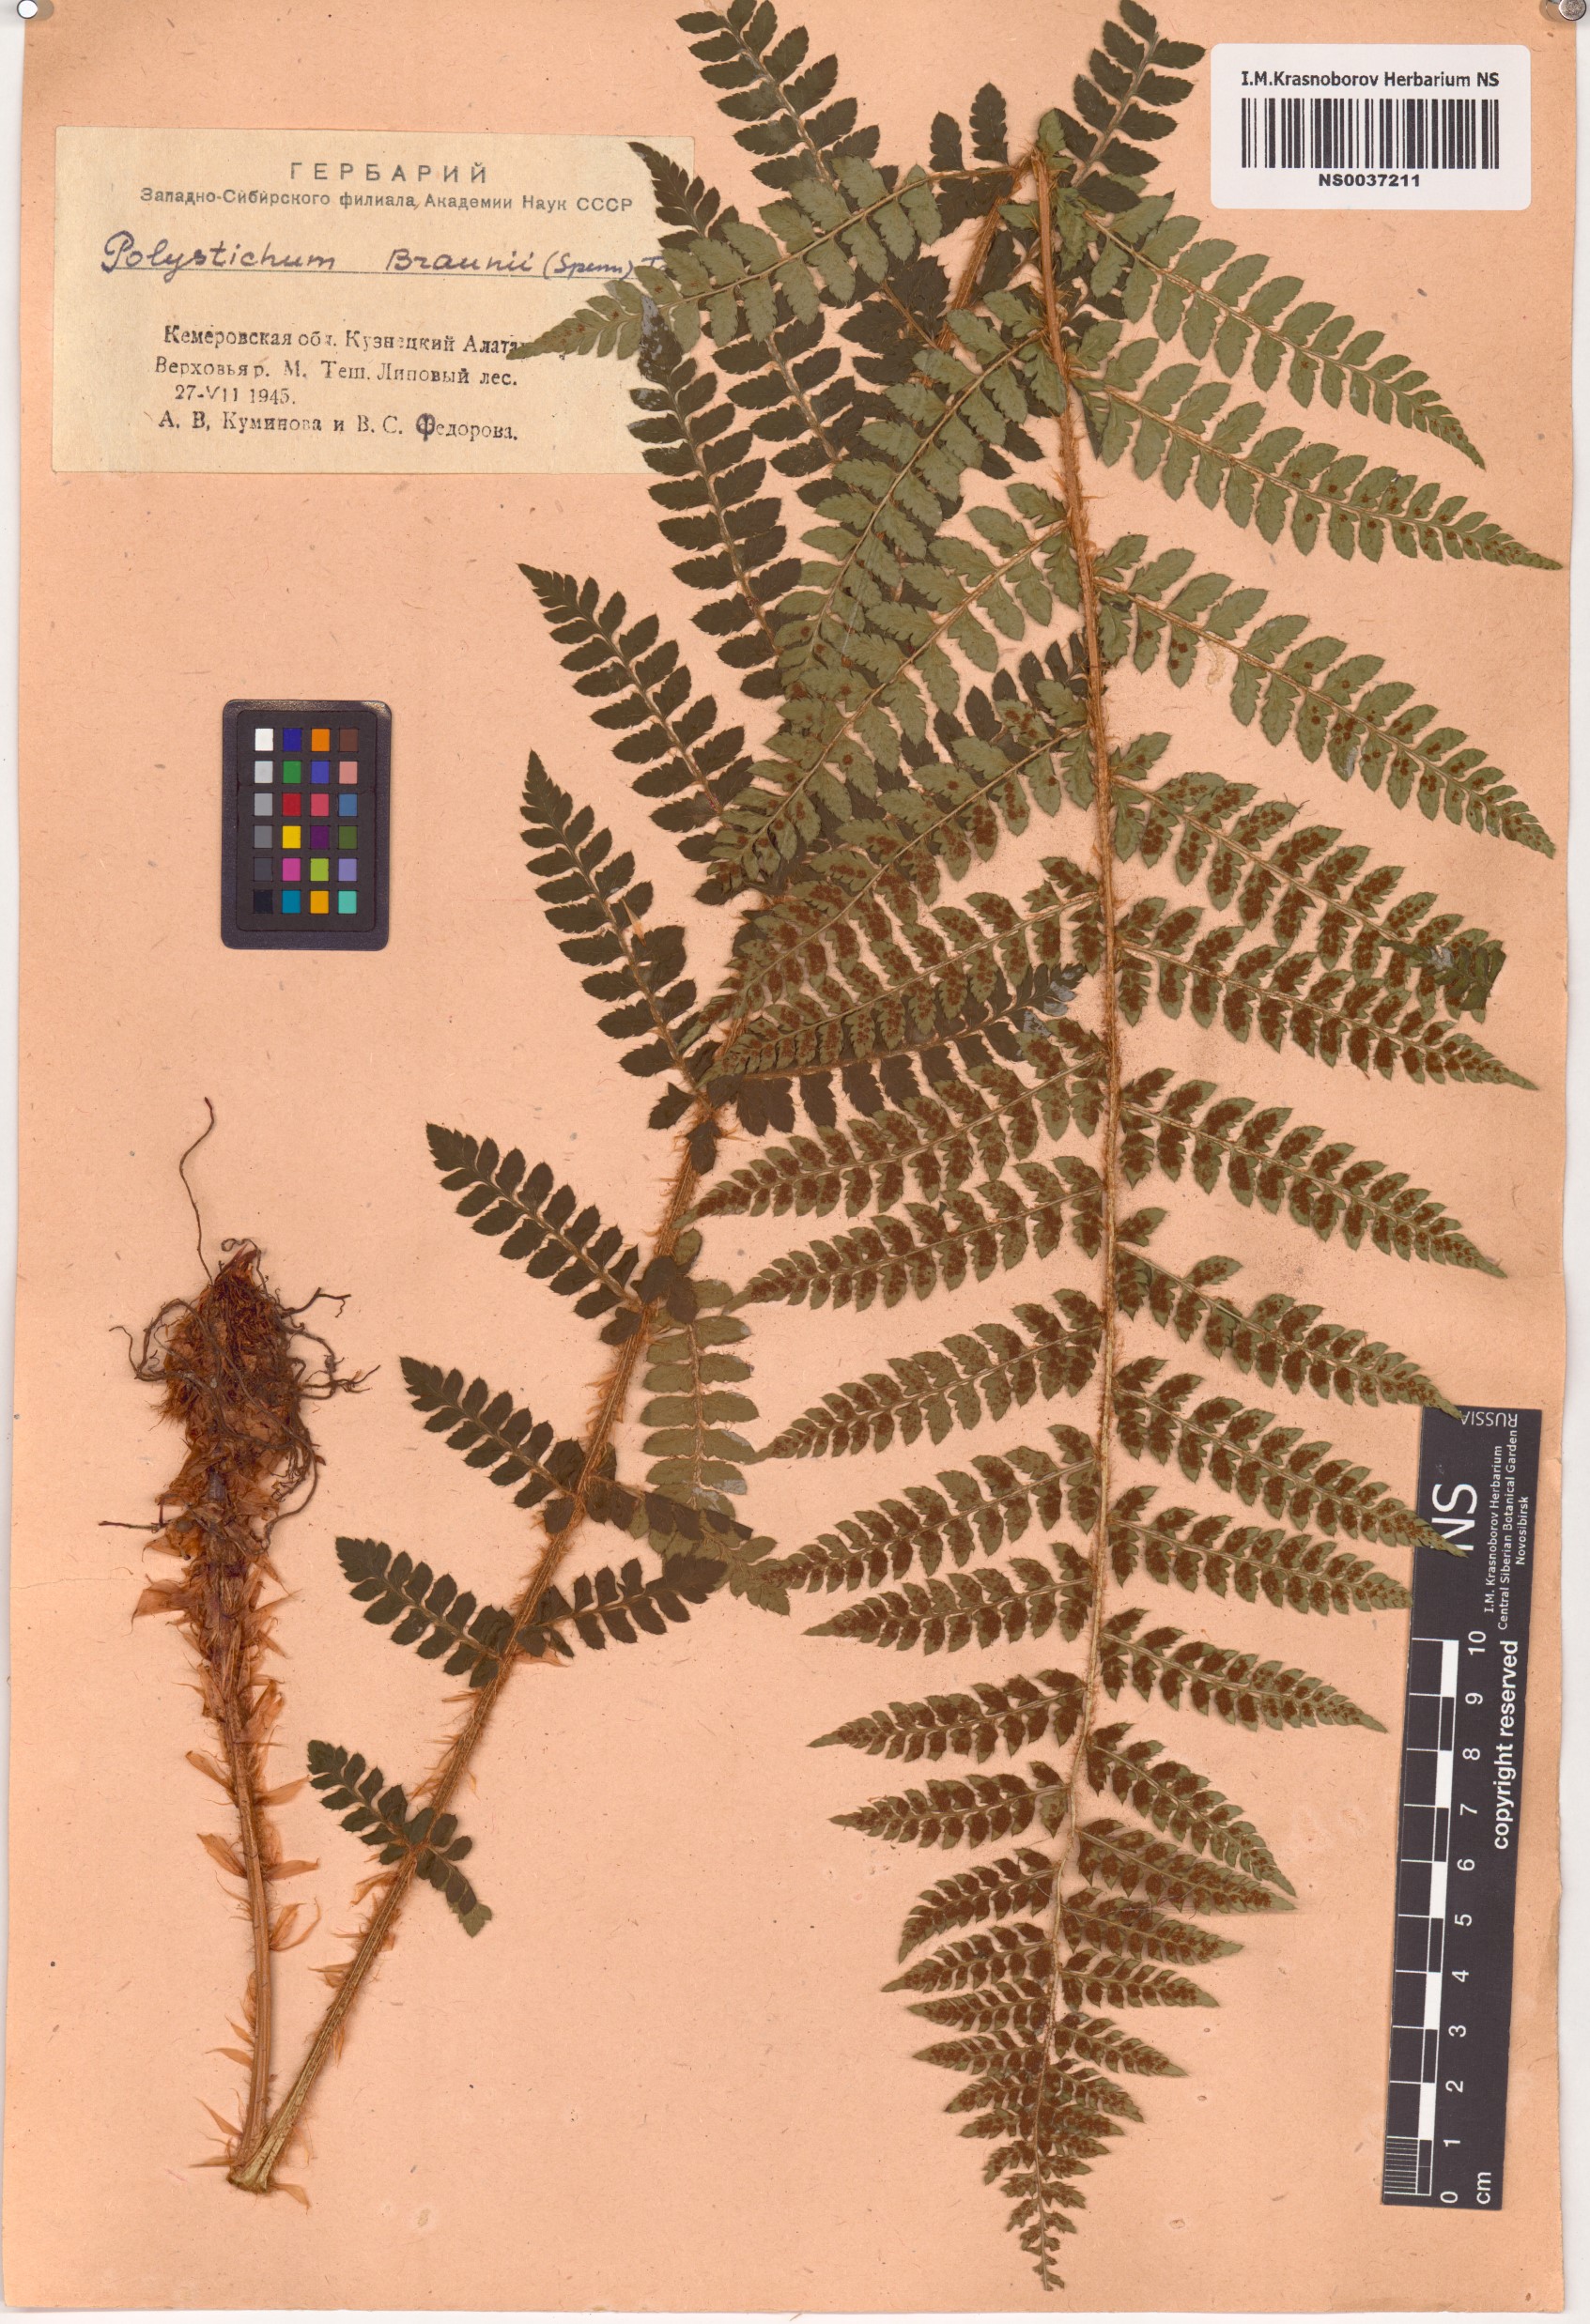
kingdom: Plantae
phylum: Tracheophyta
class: Polypodiopsida
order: Polypodiales
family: Dryopteridaceae
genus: Polystichum
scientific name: Polystichum braunii
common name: Braun's holly fern
